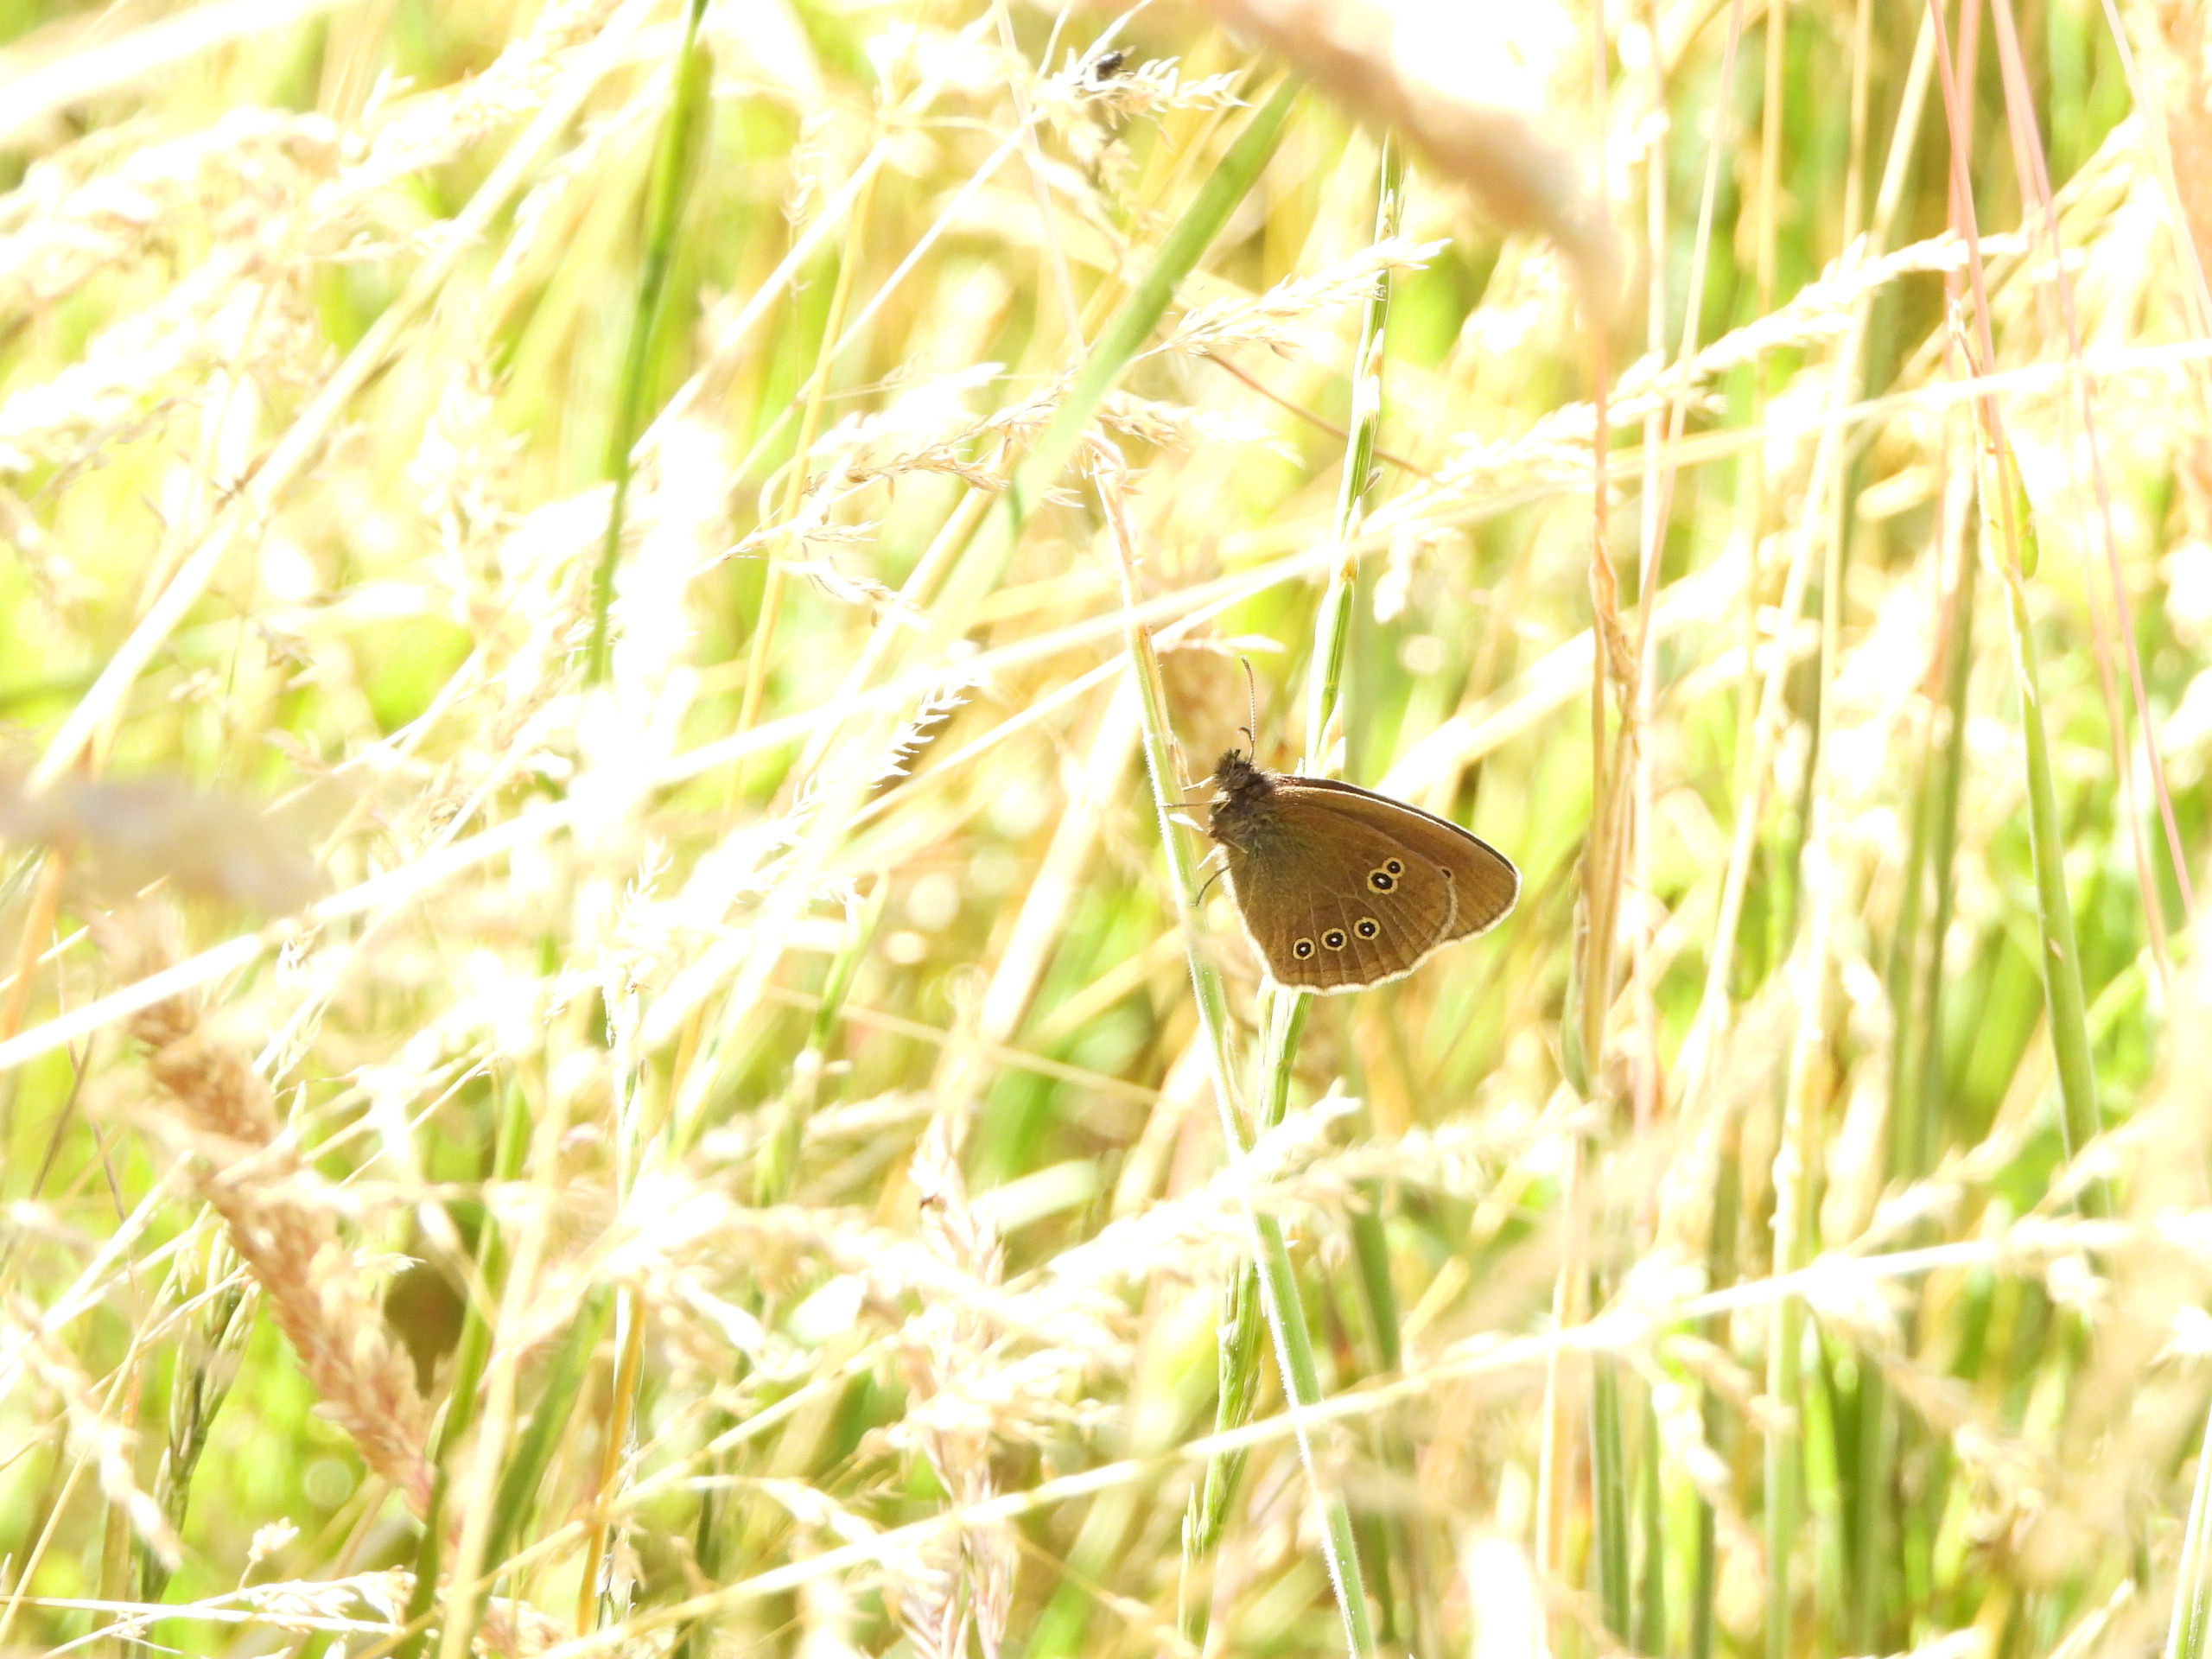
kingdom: Animalia
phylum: Arthropoda
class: Insecta
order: Lepidoptera
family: Nymphalidae
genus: Aphantopus
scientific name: Aphantopus hyperantus
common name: Engrandøje
